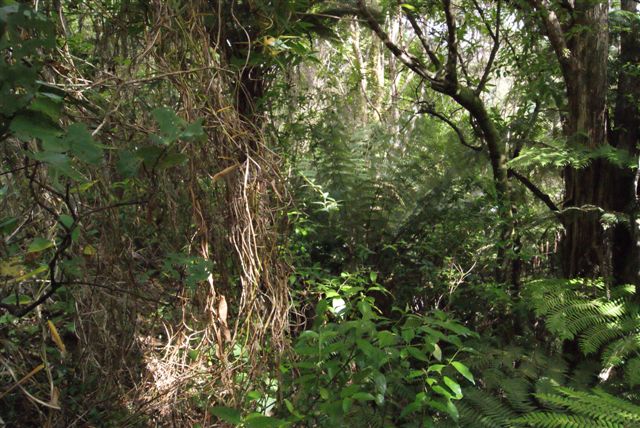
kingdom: Plantae
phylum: Tracheophyta
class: Liliopsida
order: Liliales
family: Alstroemeriaceae
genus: Bomarea
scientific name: Bomarea multiflora
